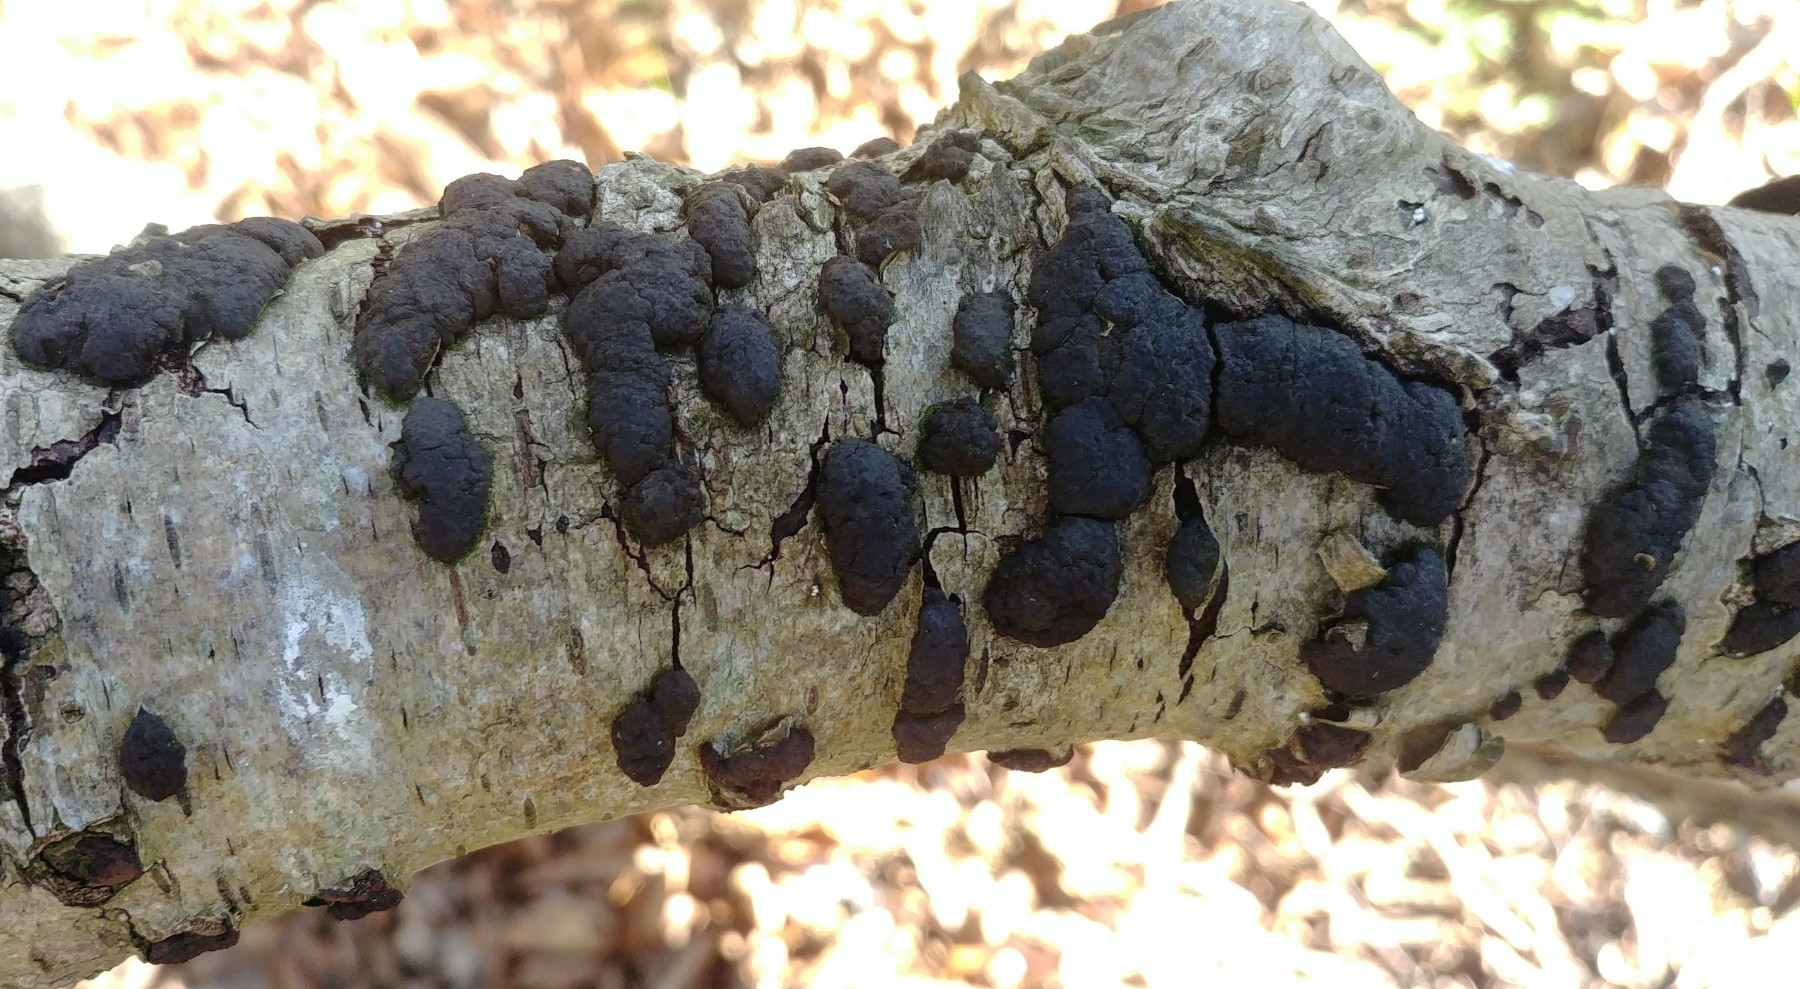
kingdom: Fungi
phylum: Ascomycota
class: Sordariomycetes
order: Xylariales
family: Hypoxylaceae
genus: Jackrogersella
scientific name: Jackrogersella multiformis
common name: foranderlig kulbær
